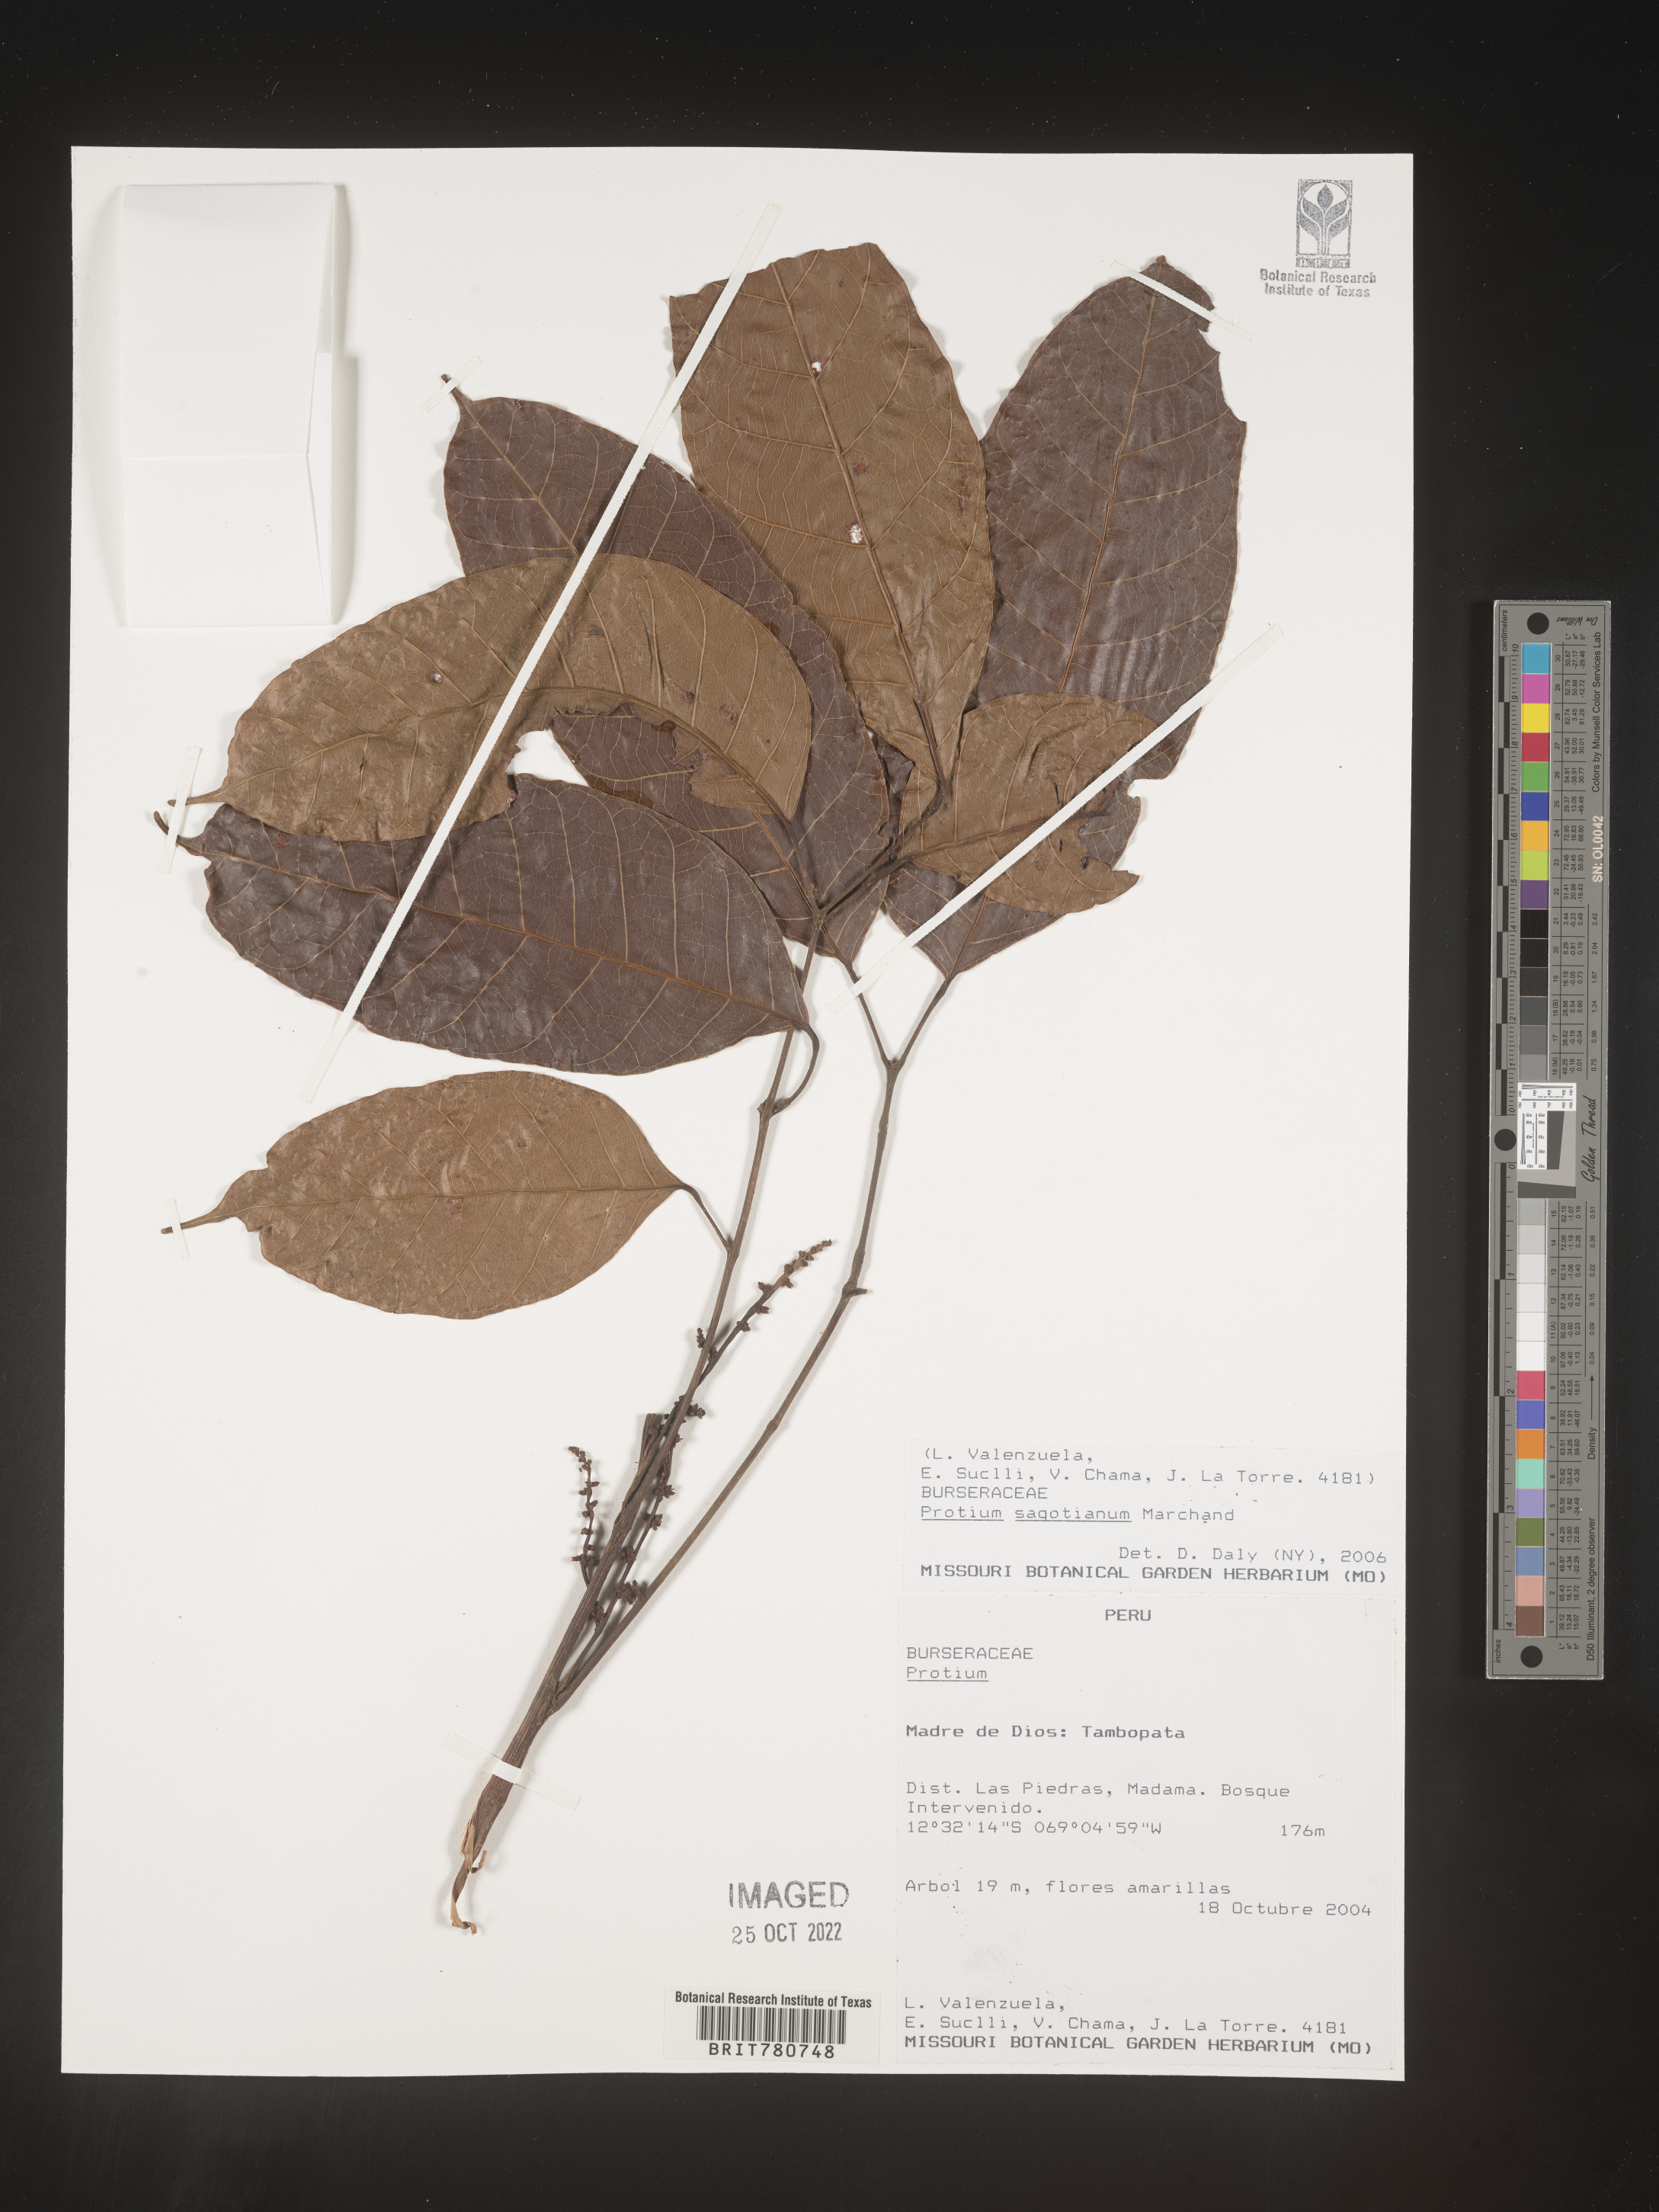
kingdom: Plantae
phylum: Tracheophyta
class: Magnoliopsida
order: Sapindales
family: Burseraceae
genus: Protium
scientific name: Protium
